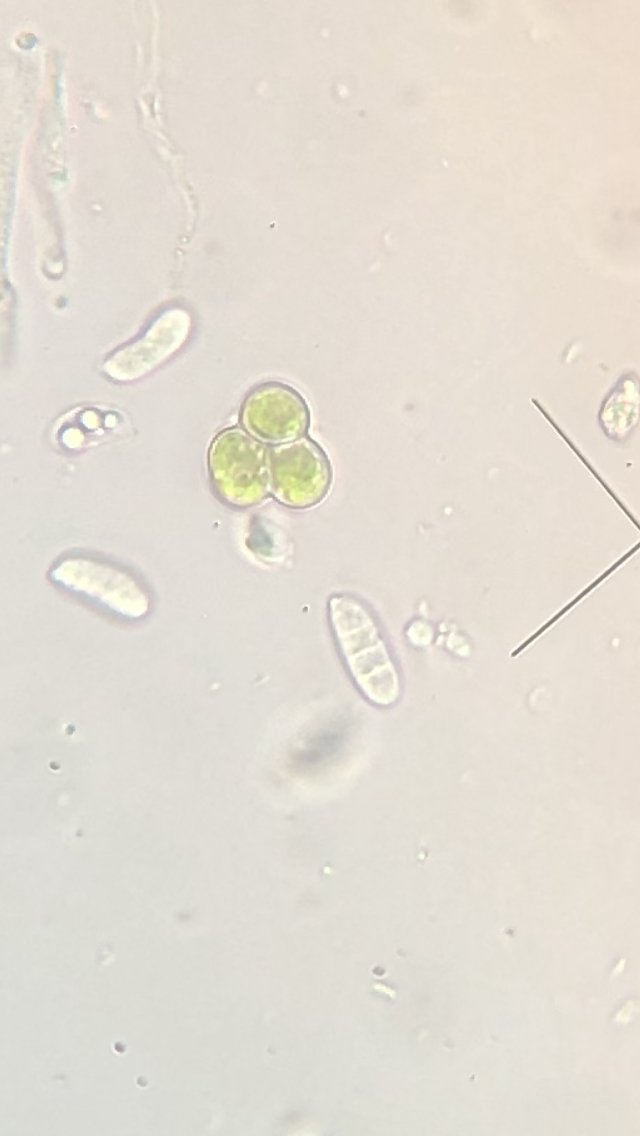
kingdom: Fungi
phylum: Basidiomycota
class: Dacrymycetes
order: Dacrymycetales
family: Dacrymycetaceae
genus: Calocera
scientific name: Calocera furcata
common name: fyrre-guldgaffel
